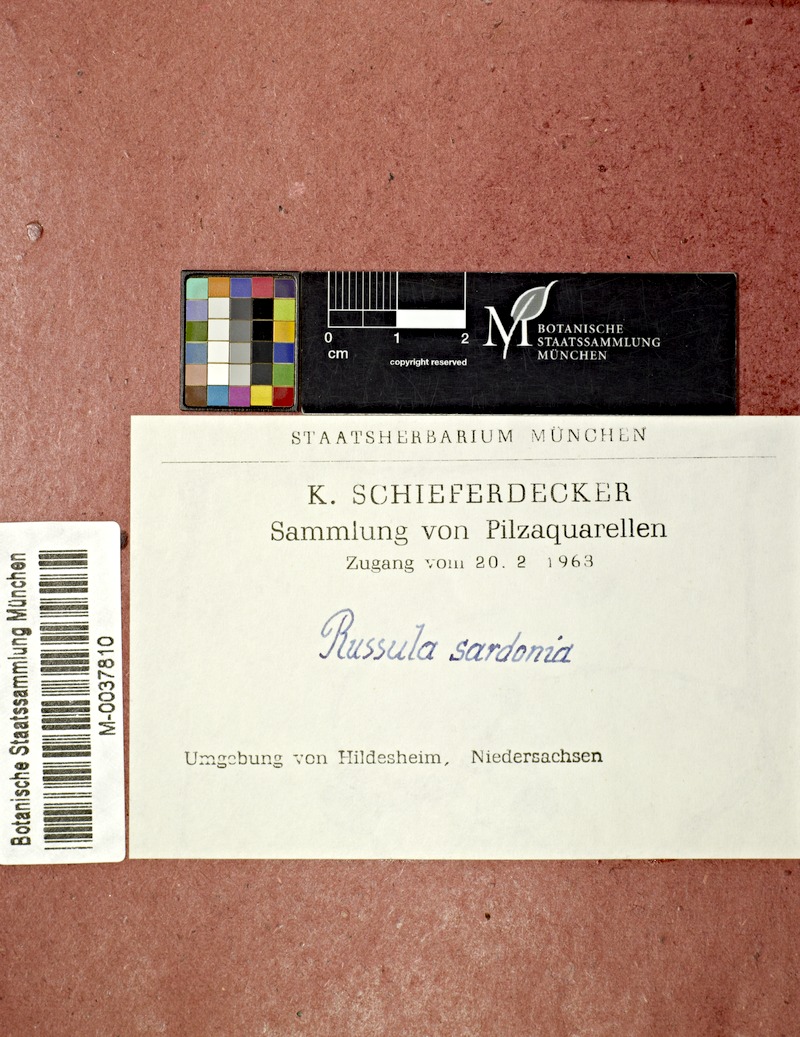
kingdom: Fungi
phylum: Basidiomycota
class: Agaricomycetes
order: Russulales
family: Russulaceae
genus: Russula
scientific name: Russula sardonia
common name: Primrose brittlegill
